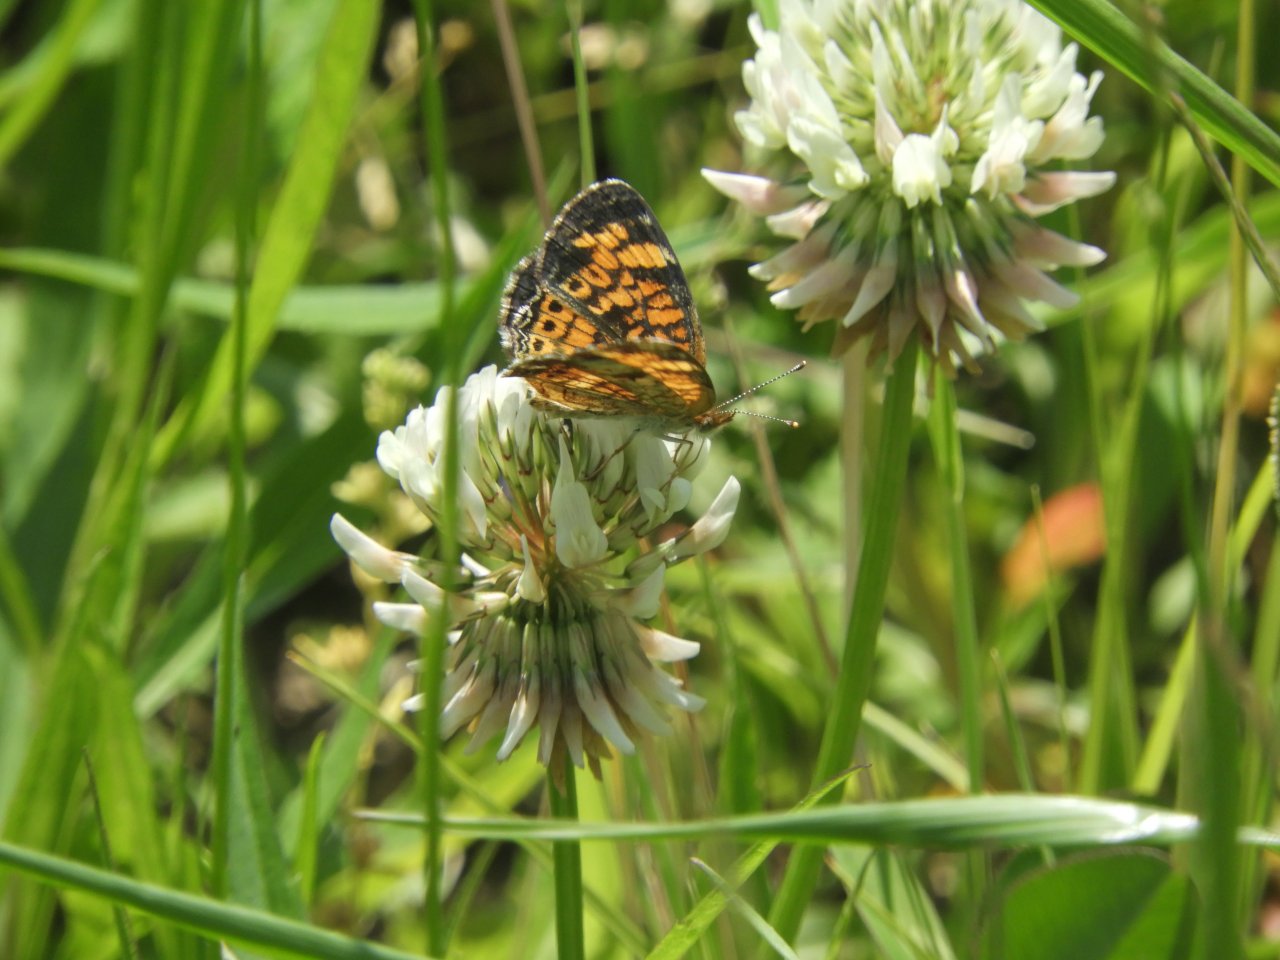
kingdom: Animalia
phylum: Arthropoda
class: Insecta
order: Lepidoptera
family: Nymphalidae
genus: Phyciodes
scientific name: Phyciodes tharos
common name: Pearl Crescent
